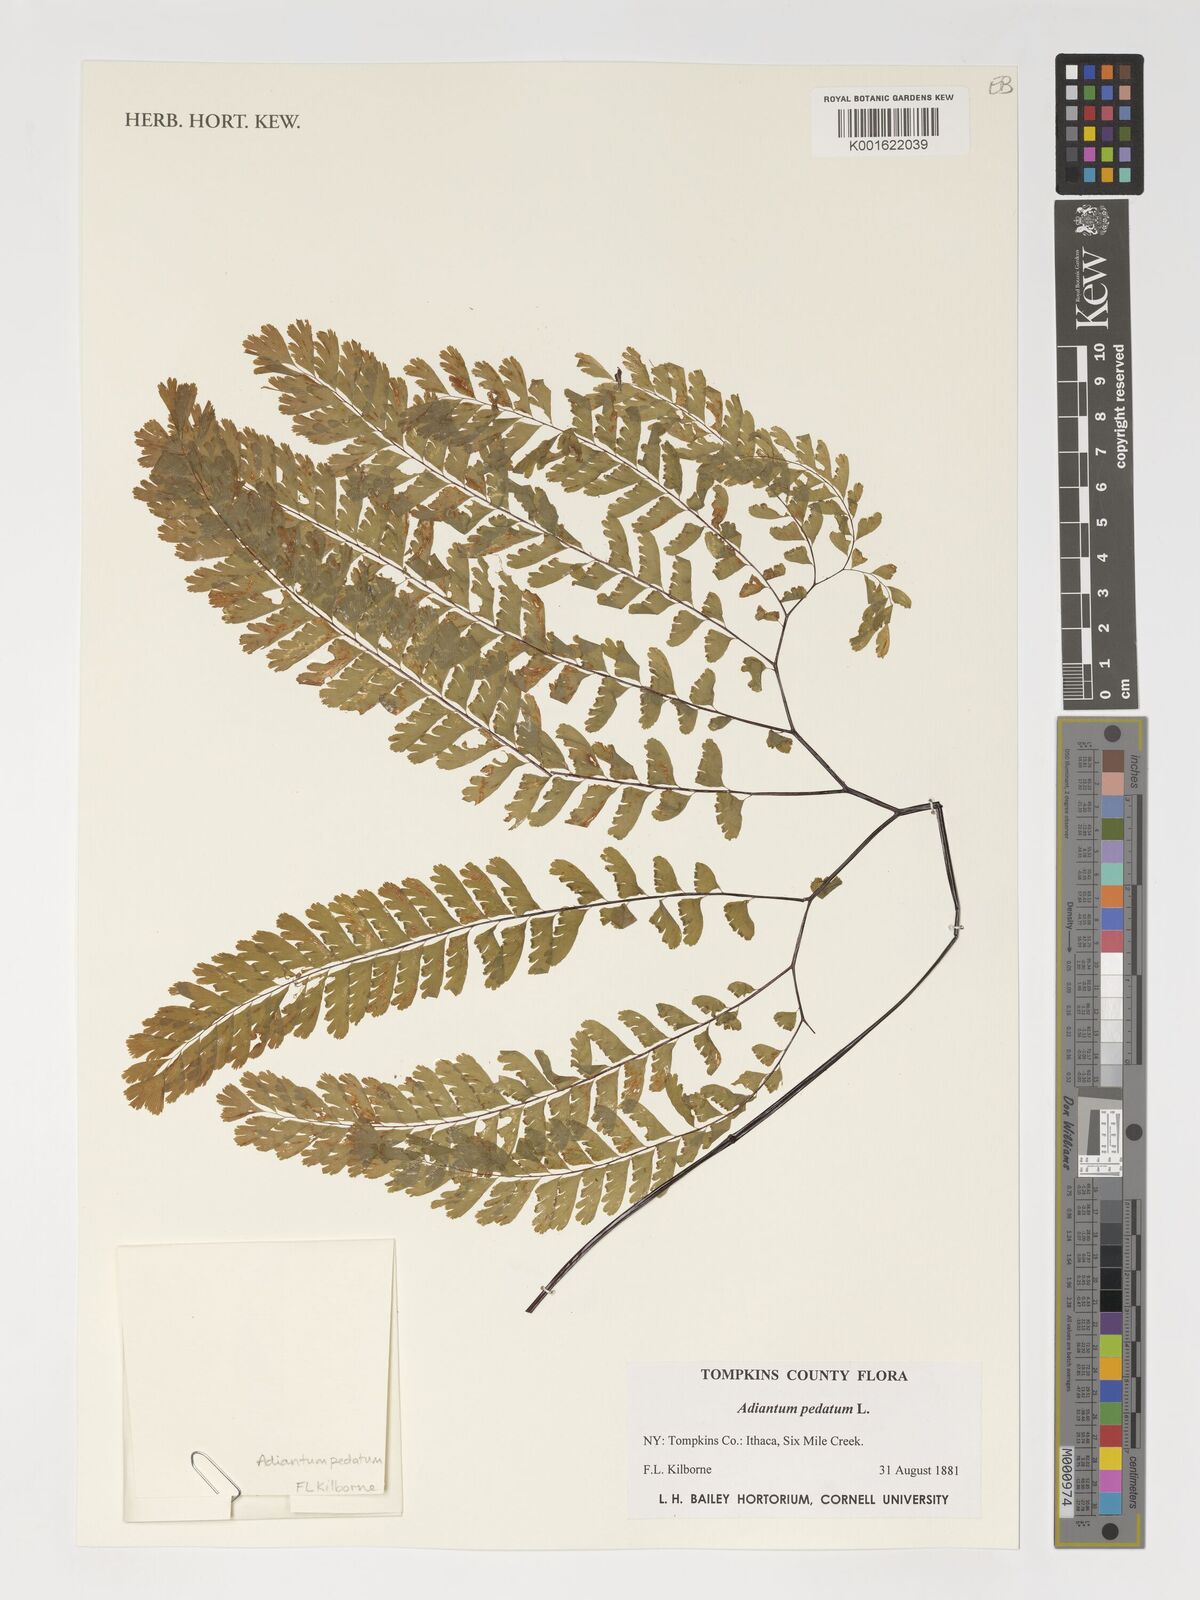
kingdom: Plantae
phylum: Tracheophyta
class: Polypodiopsida
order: Polypodiales
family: Pteridaceae
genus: Adiantum
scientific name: Adiantum pedatum
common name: Five-finger fern
